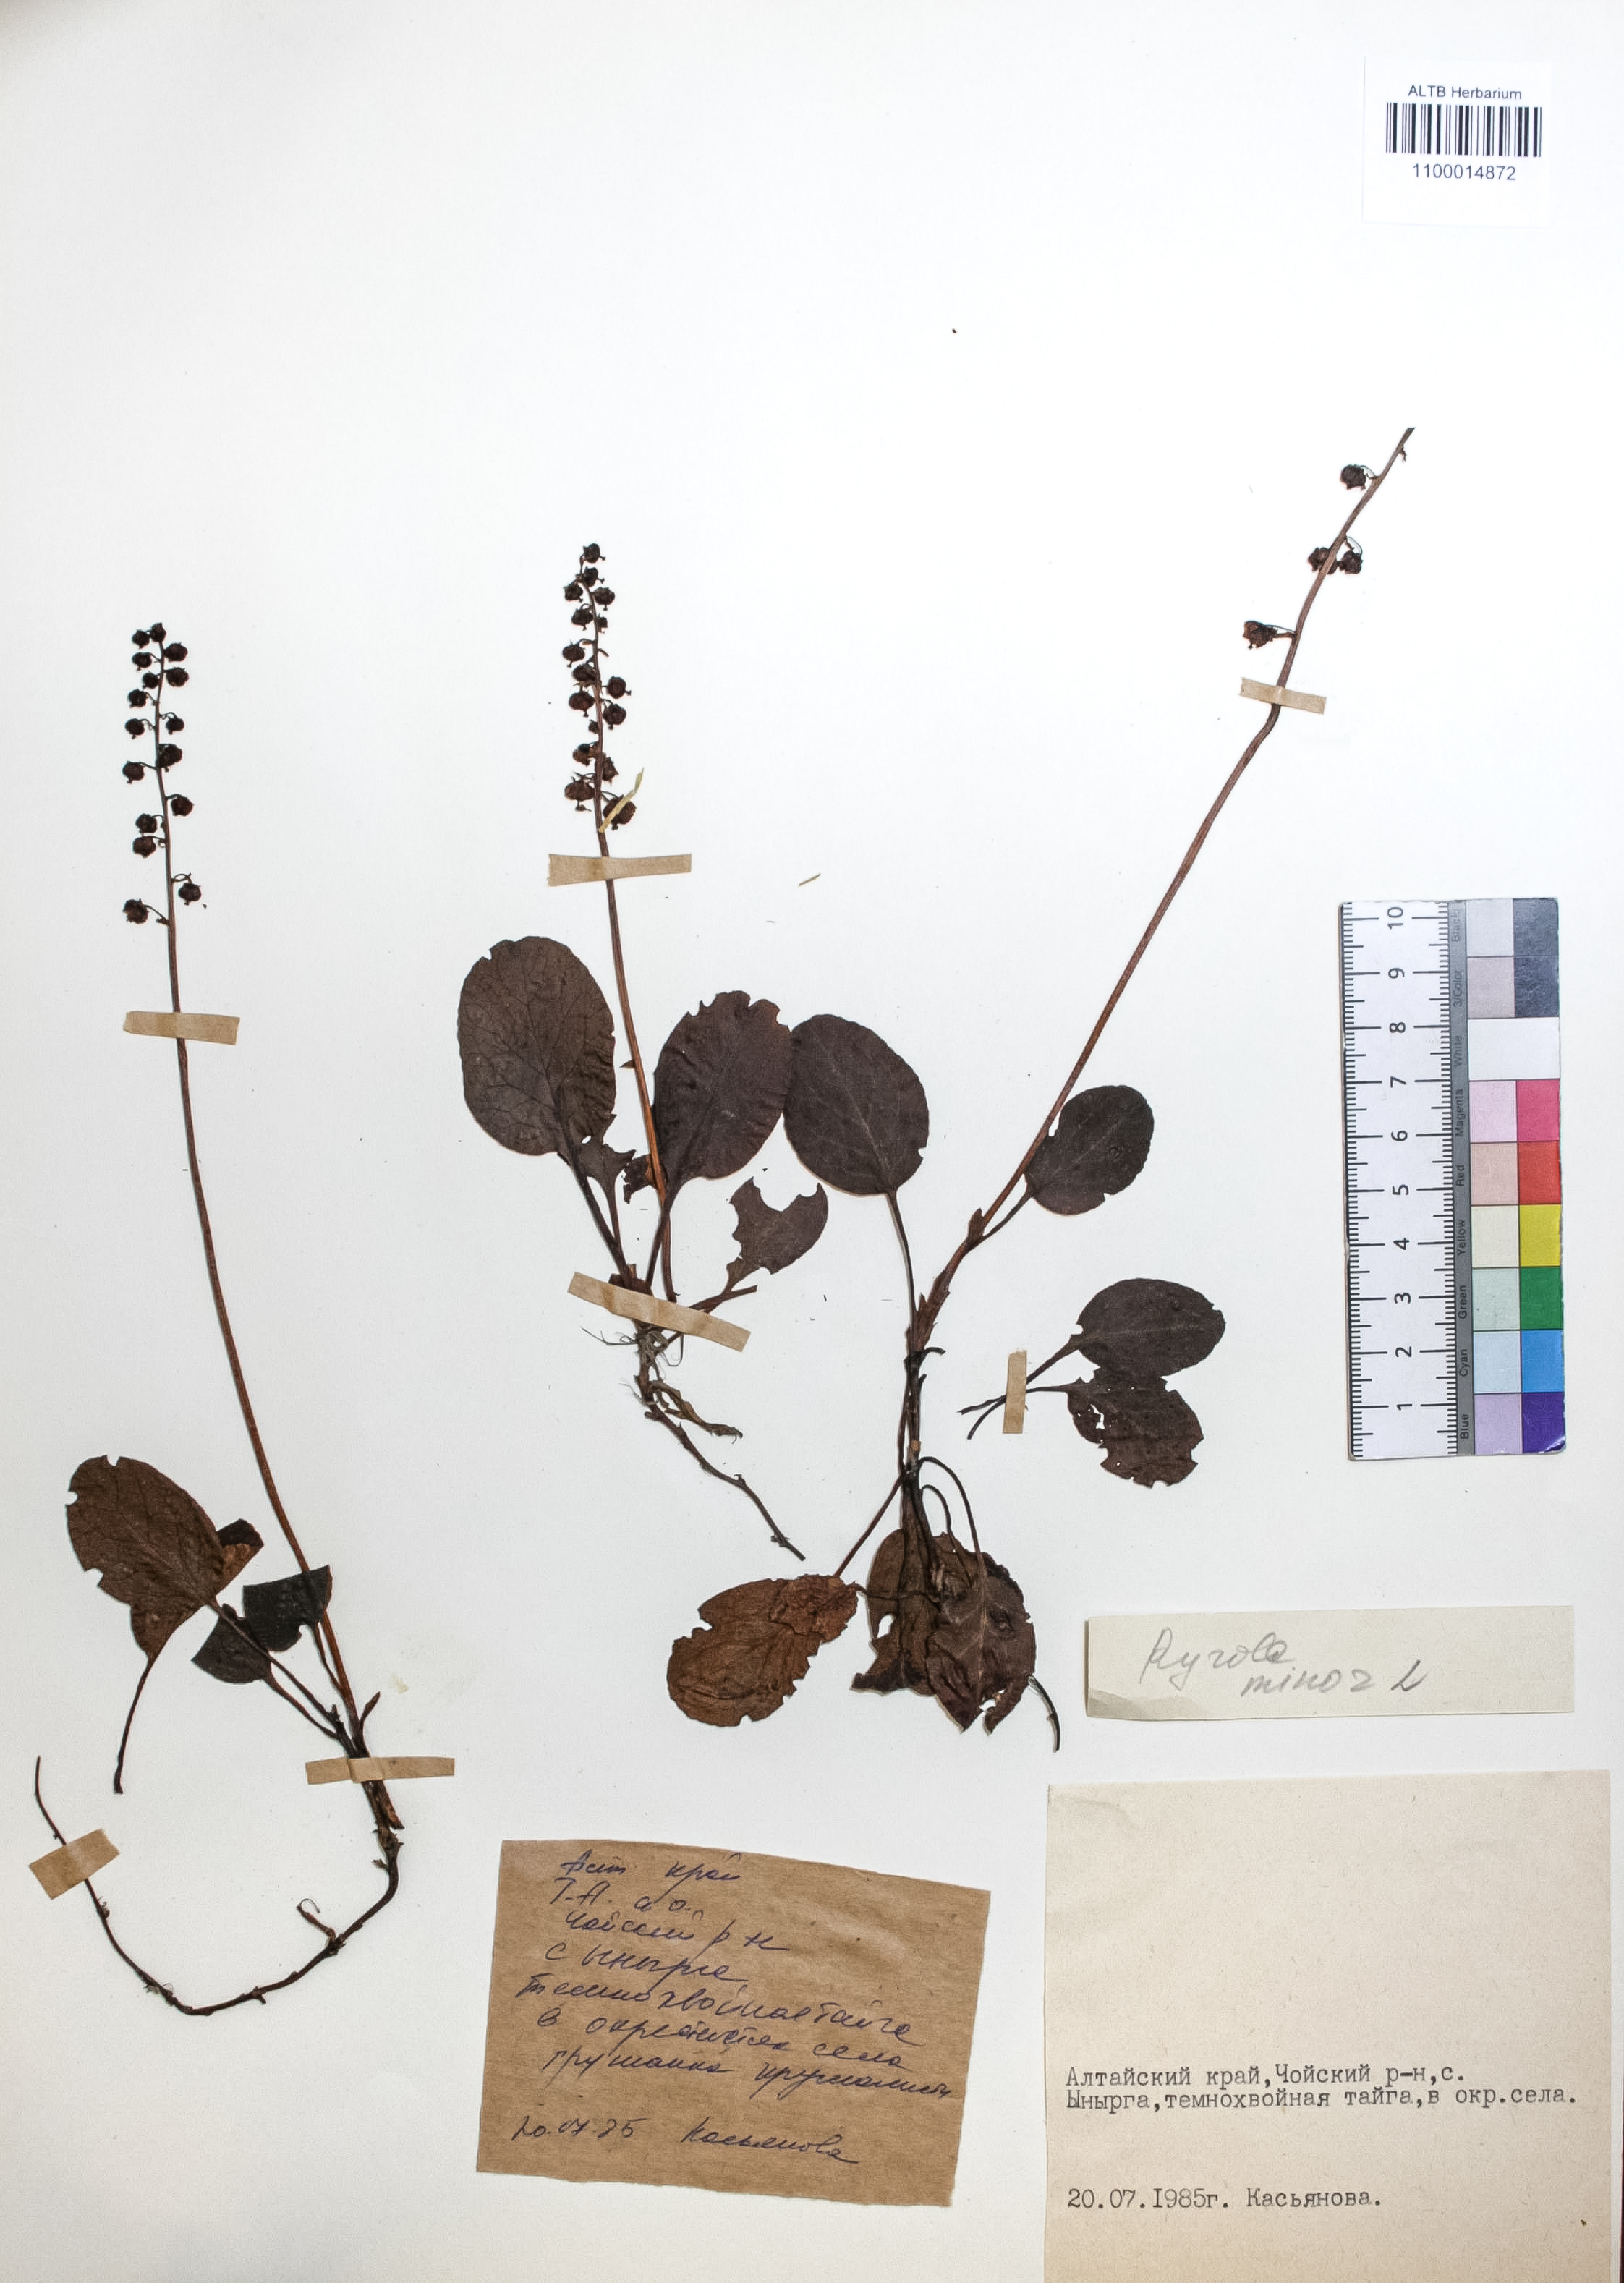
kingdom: Plantae
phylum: Tracheophyta
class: Magnoliopsida
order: Ericales
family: Ericaceae
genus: Pyrola
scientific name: Pyrola minor
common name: Common wintergreen
